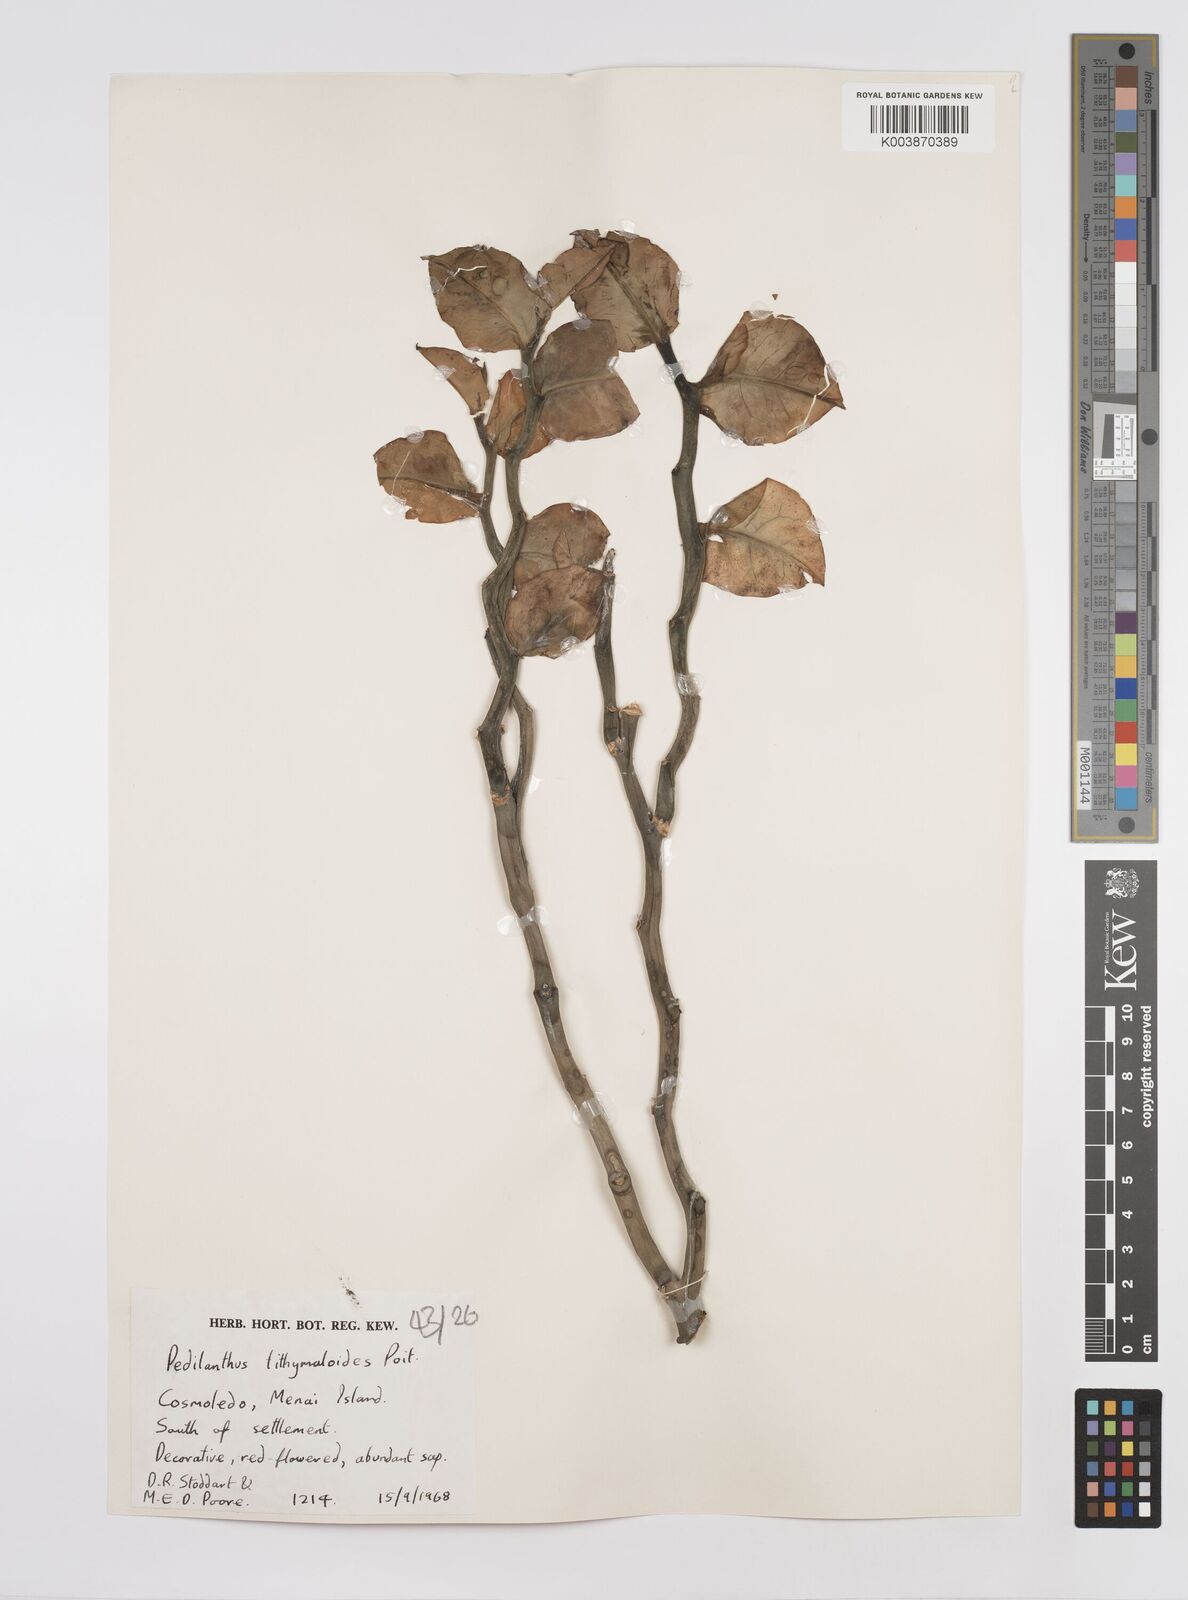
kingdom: Plantae
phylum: Tracheophyta
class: Magnoliopsida
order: Malpighiales
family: Euphorbiaceae
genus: Euphorbia
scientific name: Euphorbia tithymaloides
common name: Slipperplant
